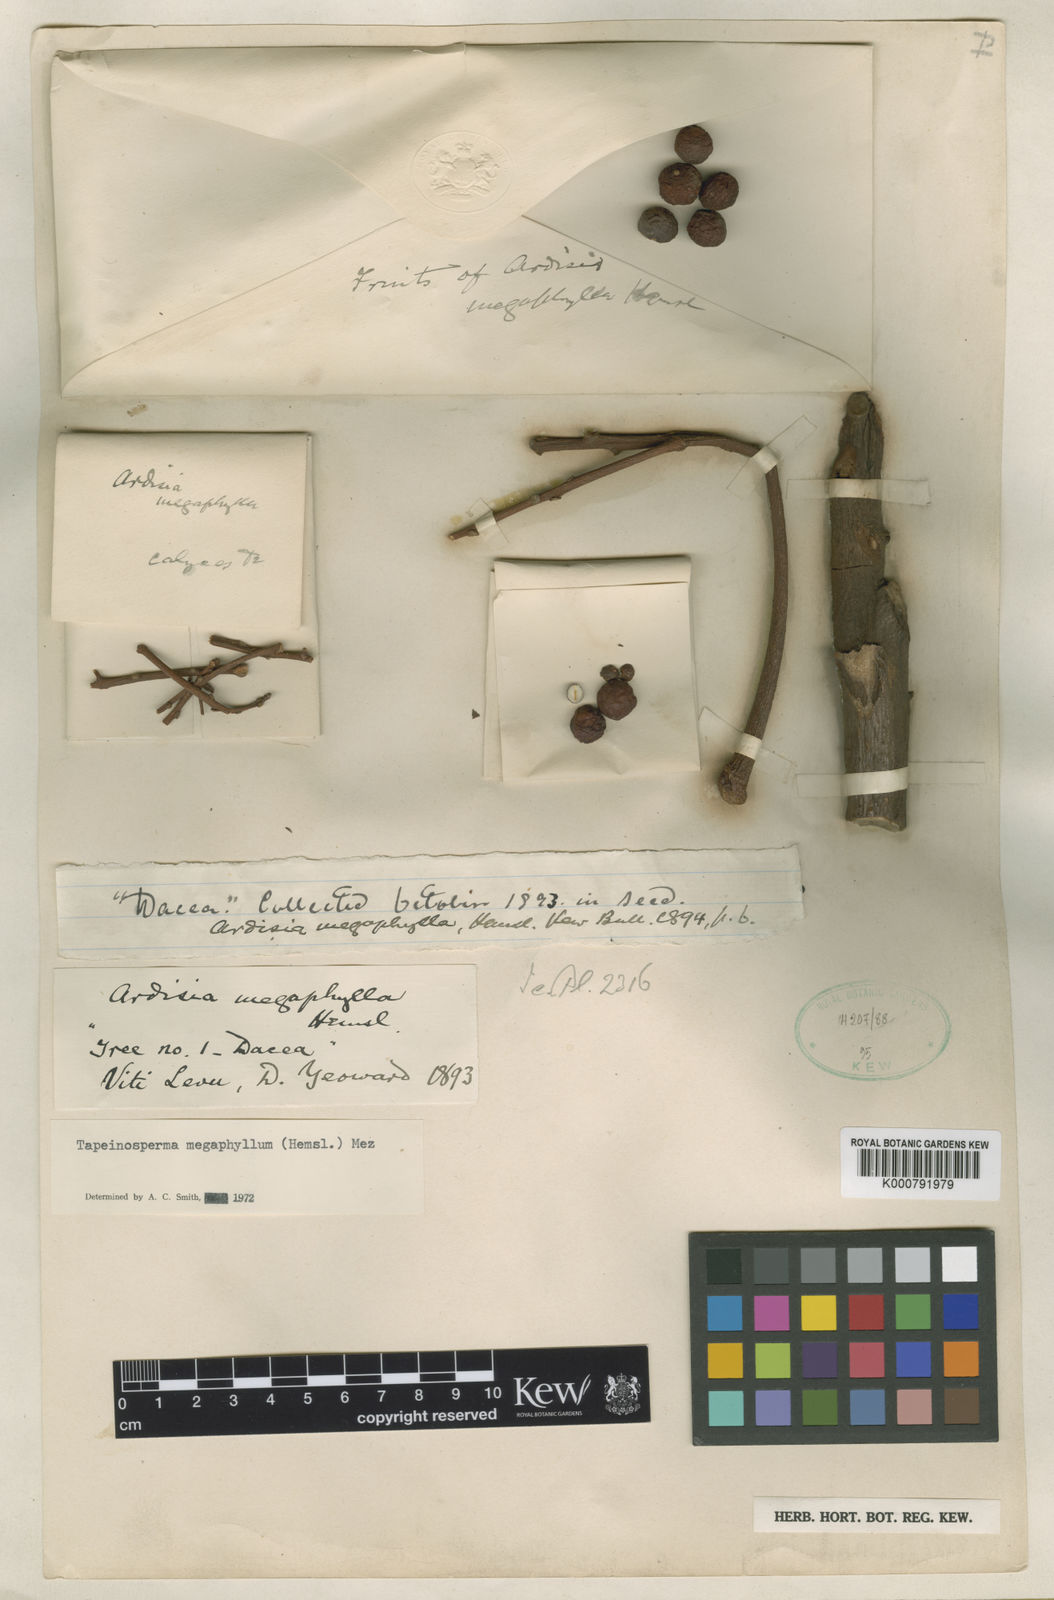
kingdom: Plantae
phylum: Tracheophyta
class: Magnoliopsida
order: Ericales
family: Primulaceae
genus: Tapeinosperma
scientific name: Tapeinosperma megaphyllum
